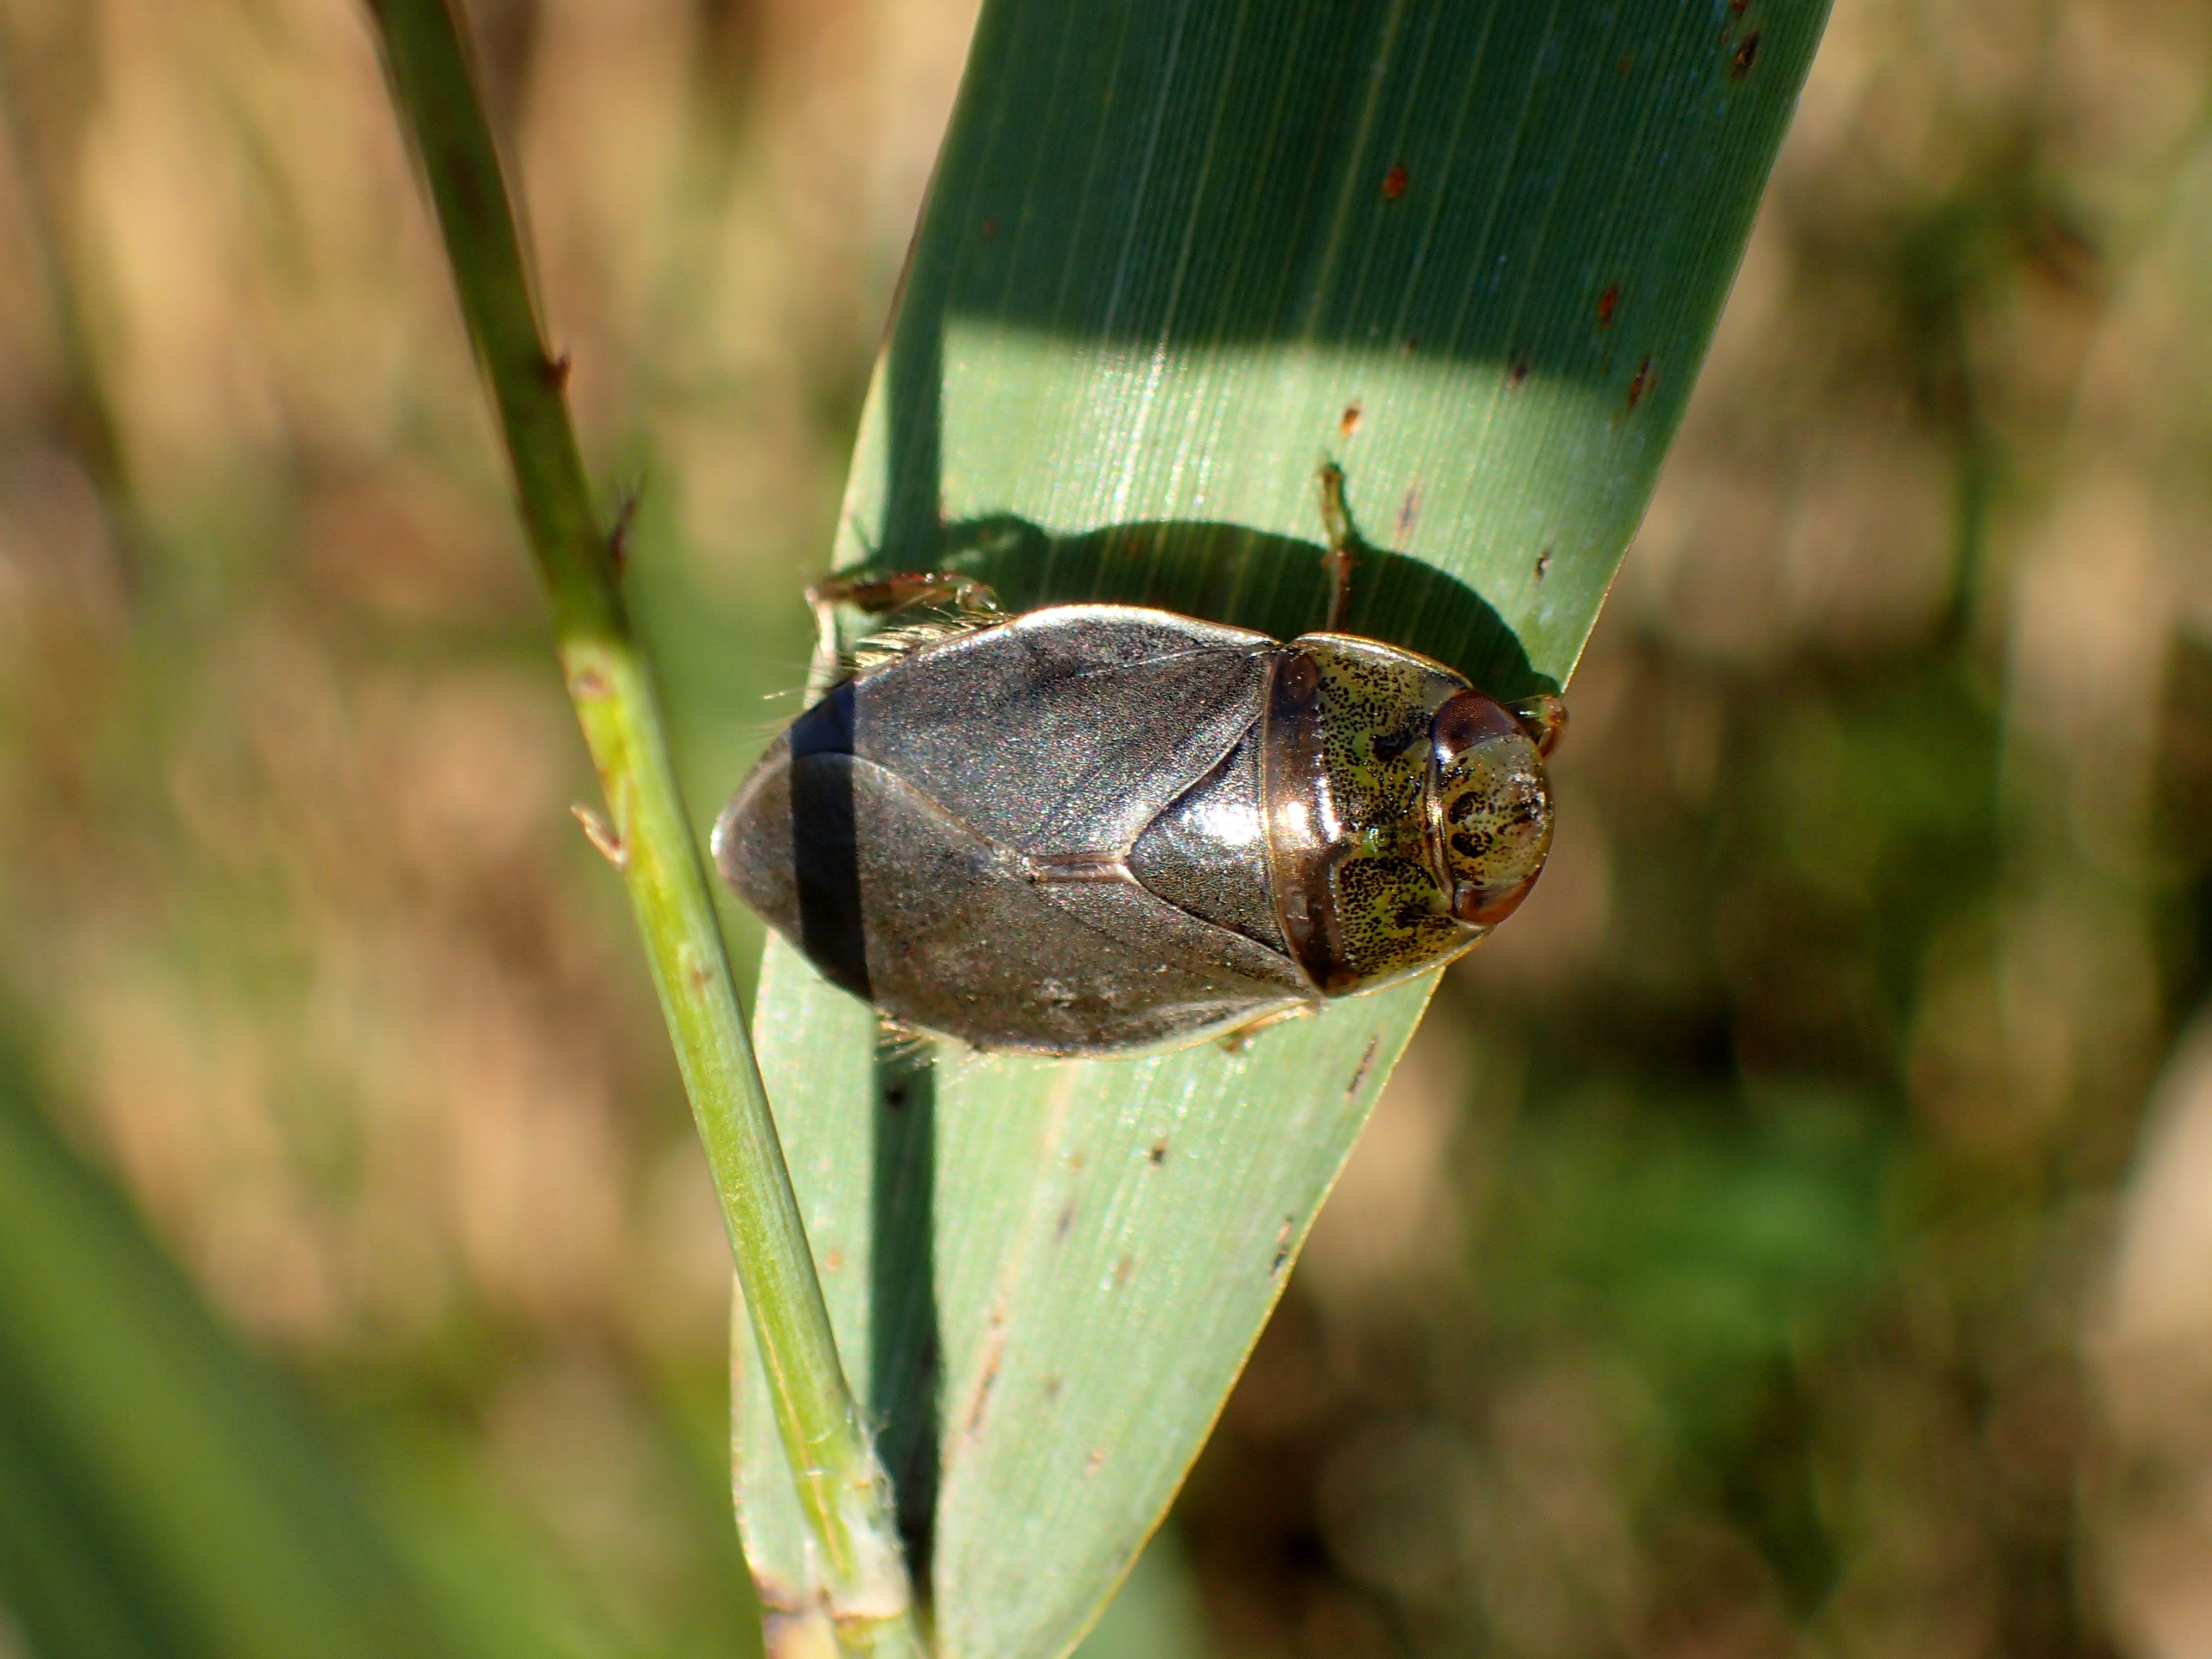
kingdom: Animalia
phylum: Arthropoda
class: Insecta
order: Hemiptera
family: Naucoridae
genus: Ilyocoris
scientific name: Ilyocoris cimicoides
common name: Vandrøver
